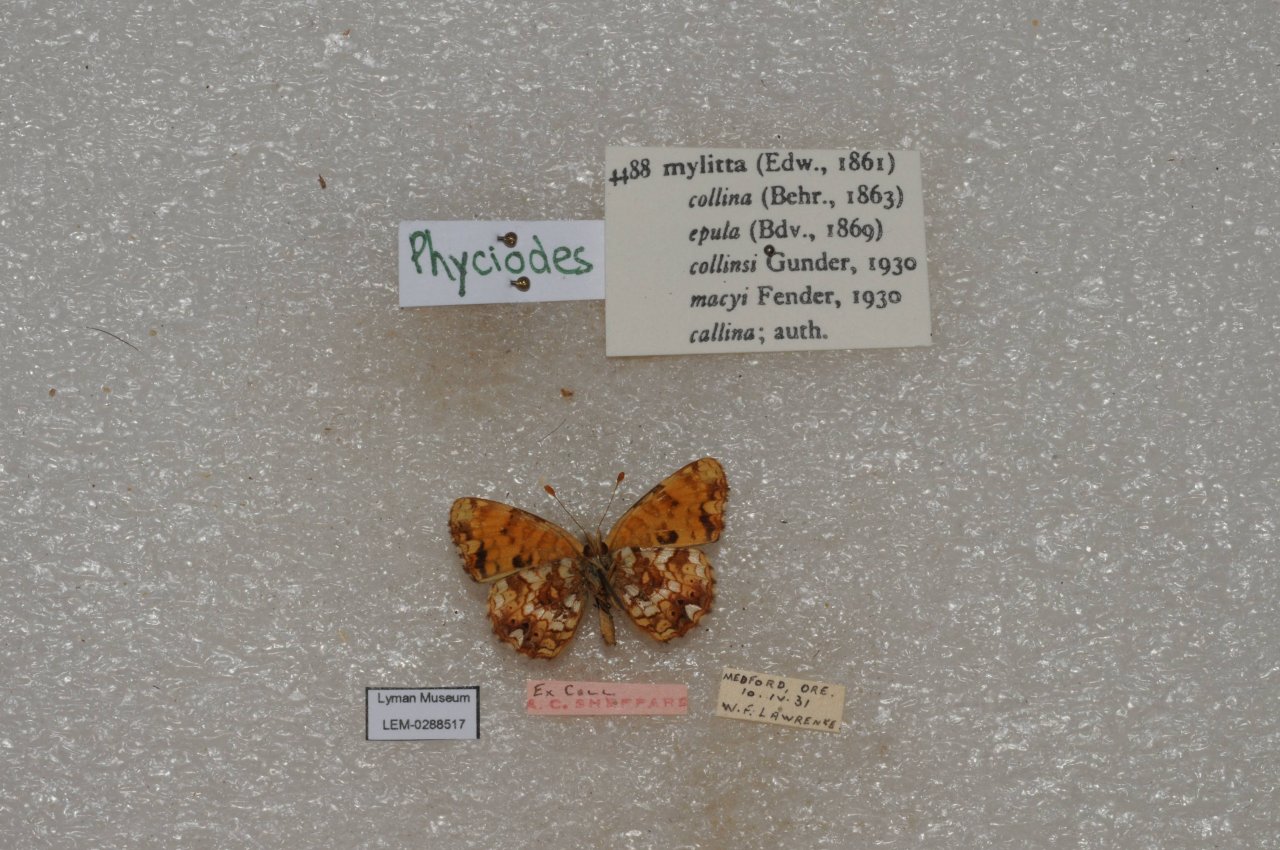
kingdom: Animalia
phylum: Arthropoda
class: Insecta
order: Lepidoptera
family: Nymphalidae
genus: Eresia
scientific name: Eresia aveyrona
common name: Mylitta Crescent
